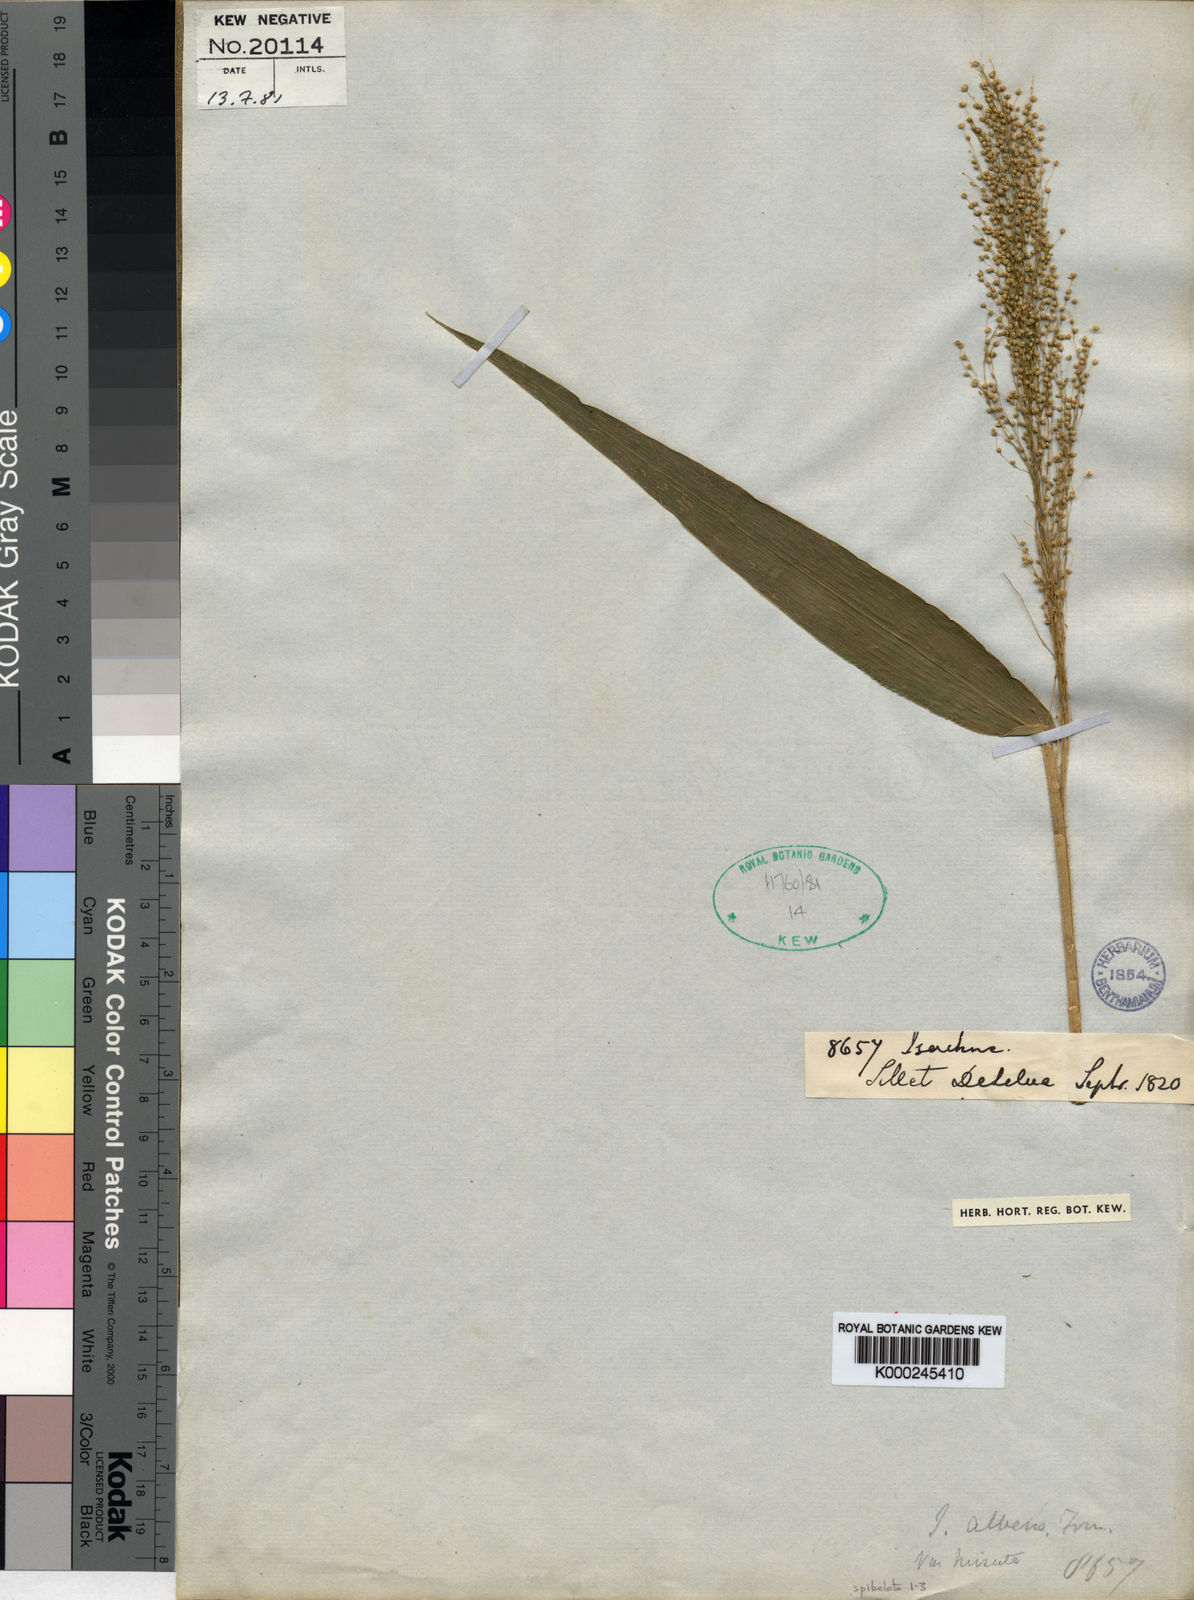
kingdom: Plantae
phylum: Tracheophyta
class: Liliopsida
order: Poales
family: Poaceae
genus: Isachne
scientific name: Isachne sylvestris
